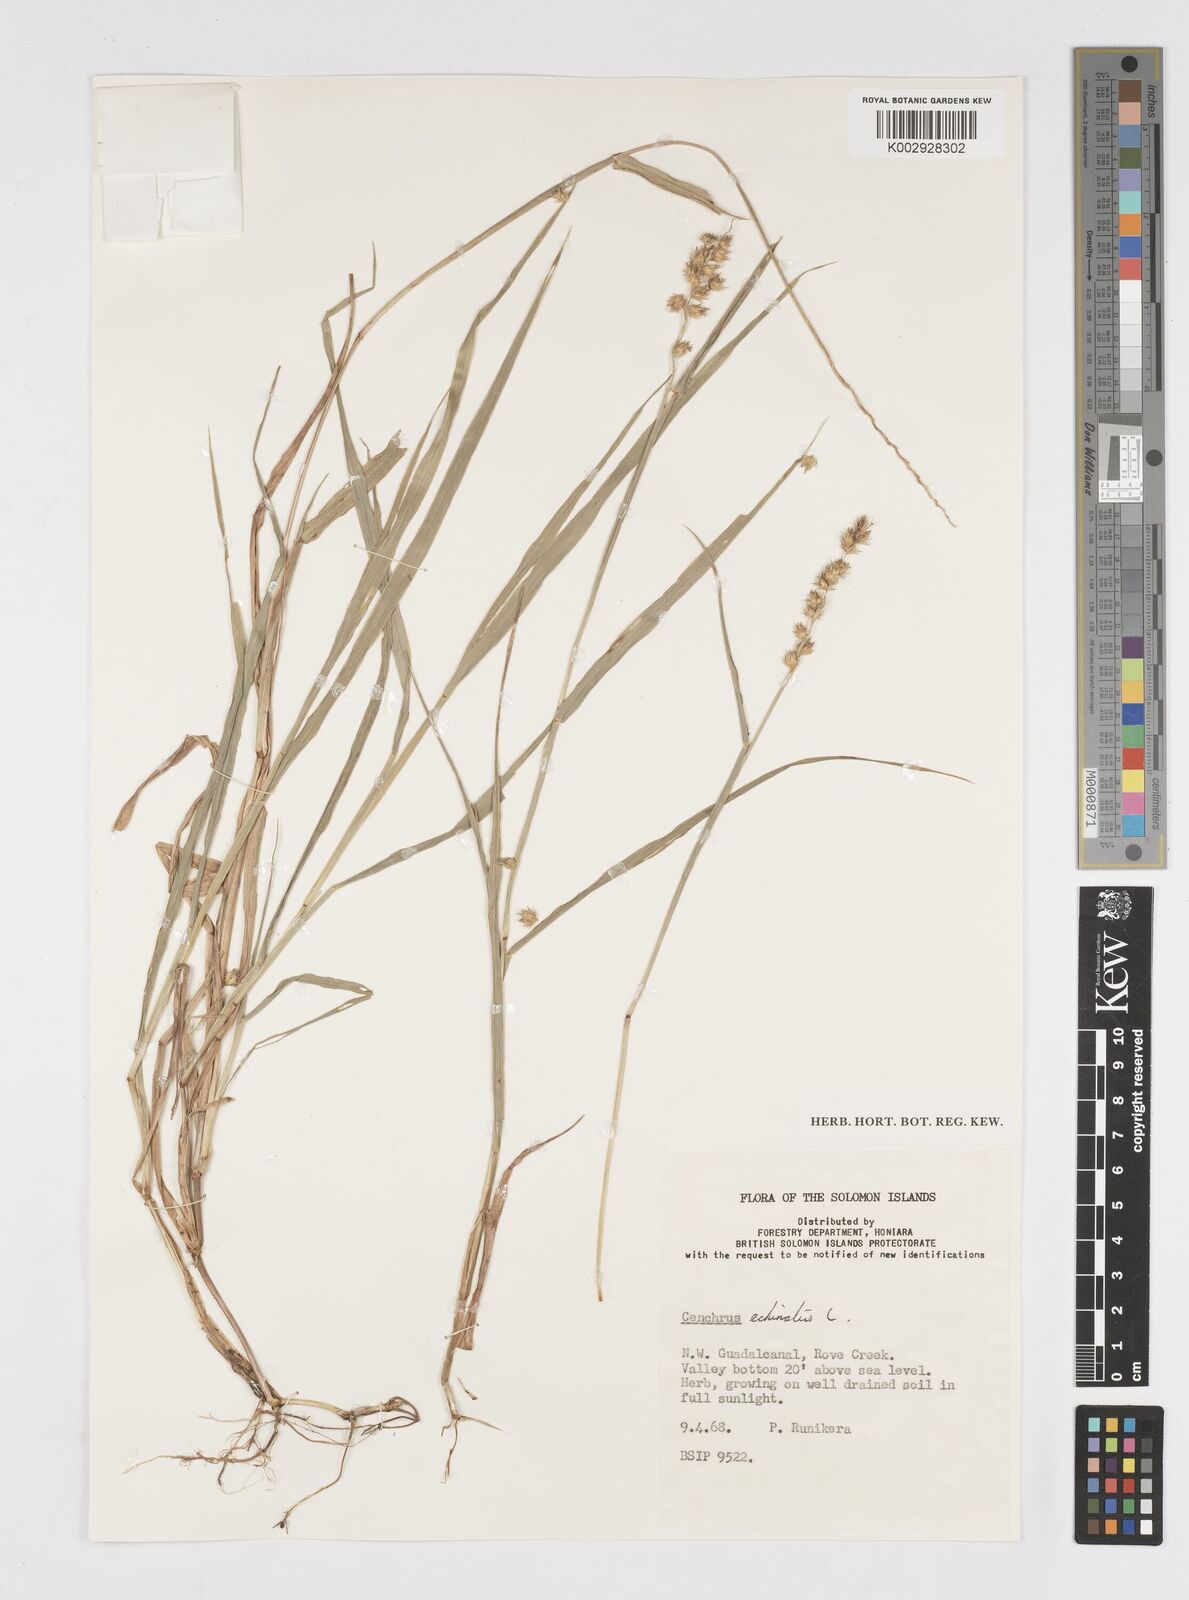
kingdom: Plantae
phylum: Tracheophyta
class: Liliopsida
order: Poales
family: Poaceae
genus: Cenchrus
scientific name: Cenchrus echinatus
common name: Southern sandbur
